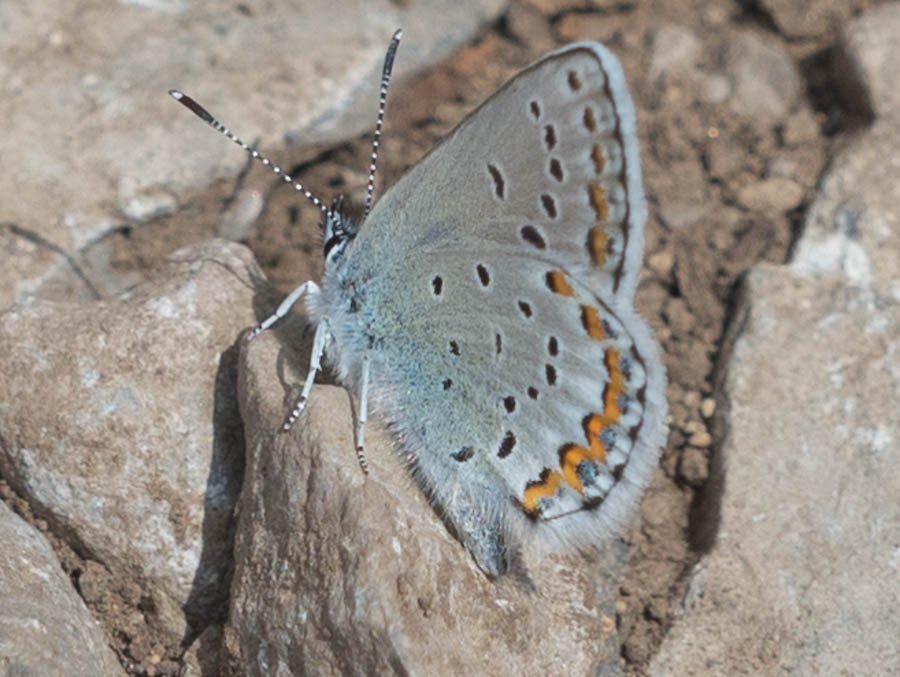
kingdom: Animalia
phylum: Arthropoda
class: Insecta
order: Lepidoptera
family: Lycaenidae
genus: Lycaeides
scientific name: Lycaeides idas
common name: Northern Blue
